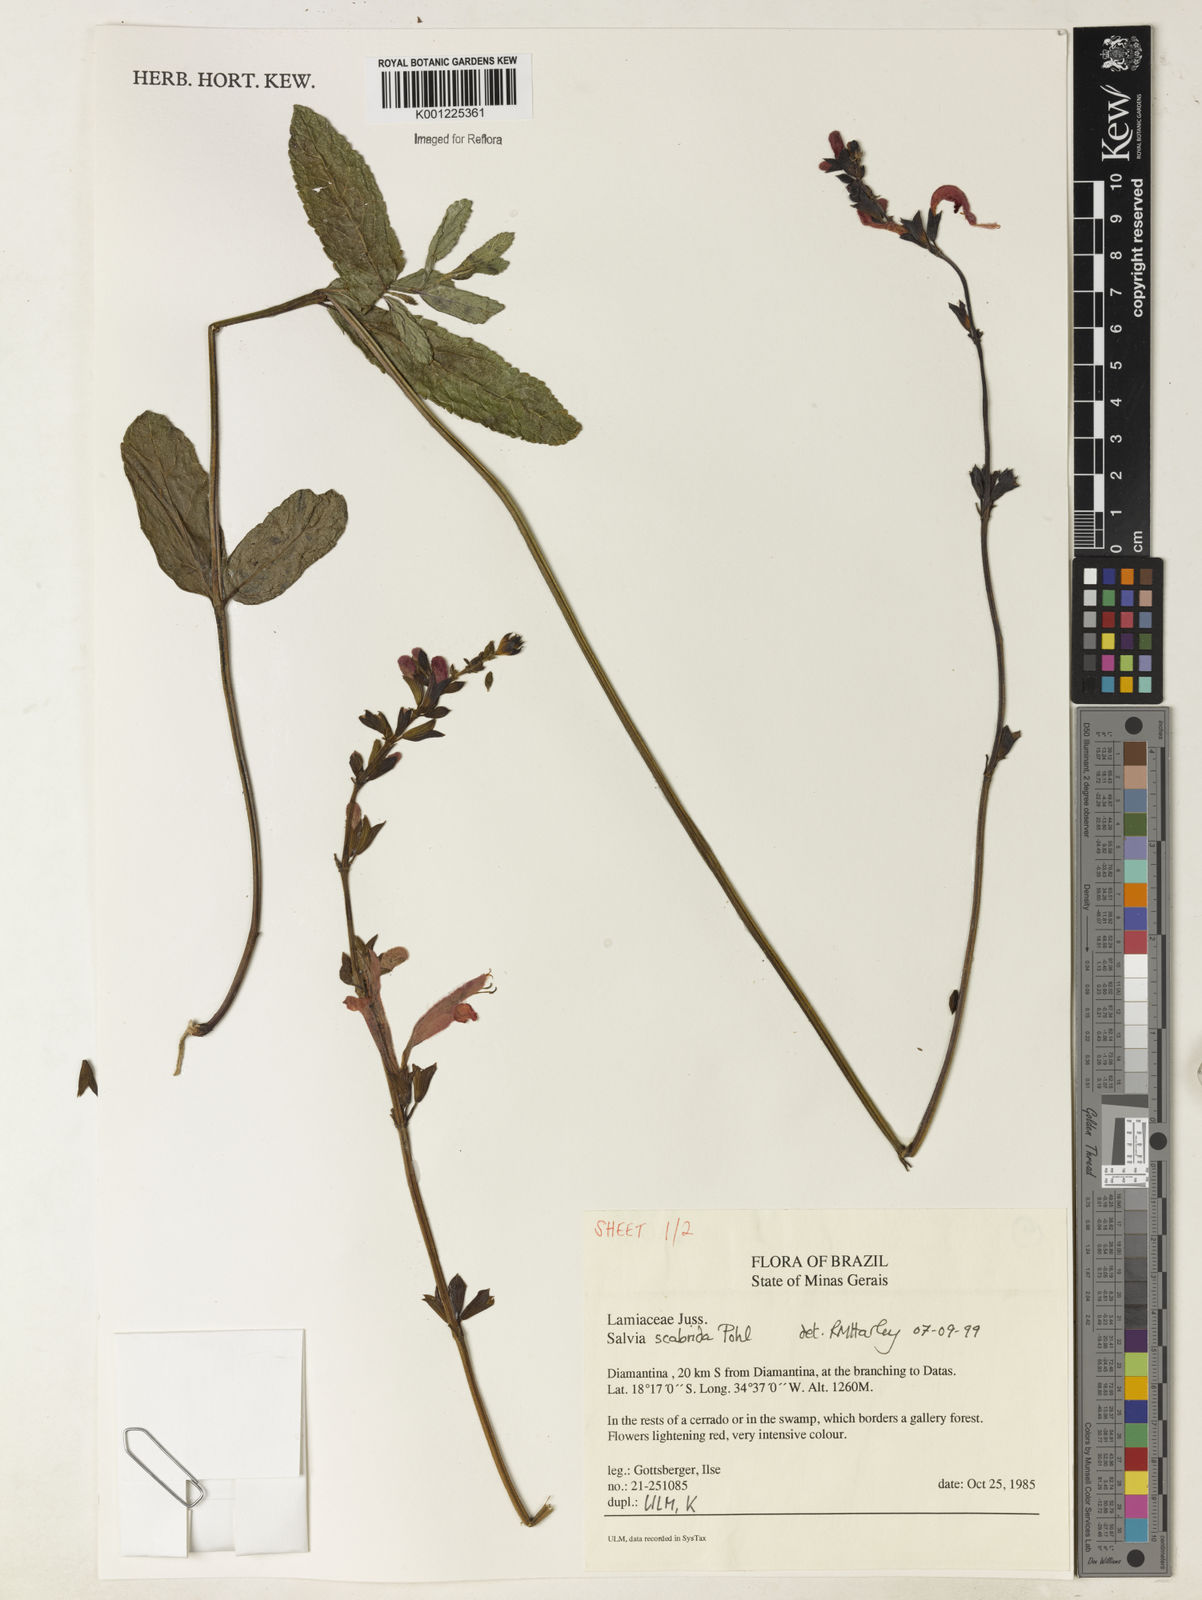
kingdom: Plantae
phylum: Tracheophyta
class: Magnoliopsida
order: Lamiales
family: Lamiaceae
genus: Salvia
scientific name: Salvia scabrida
